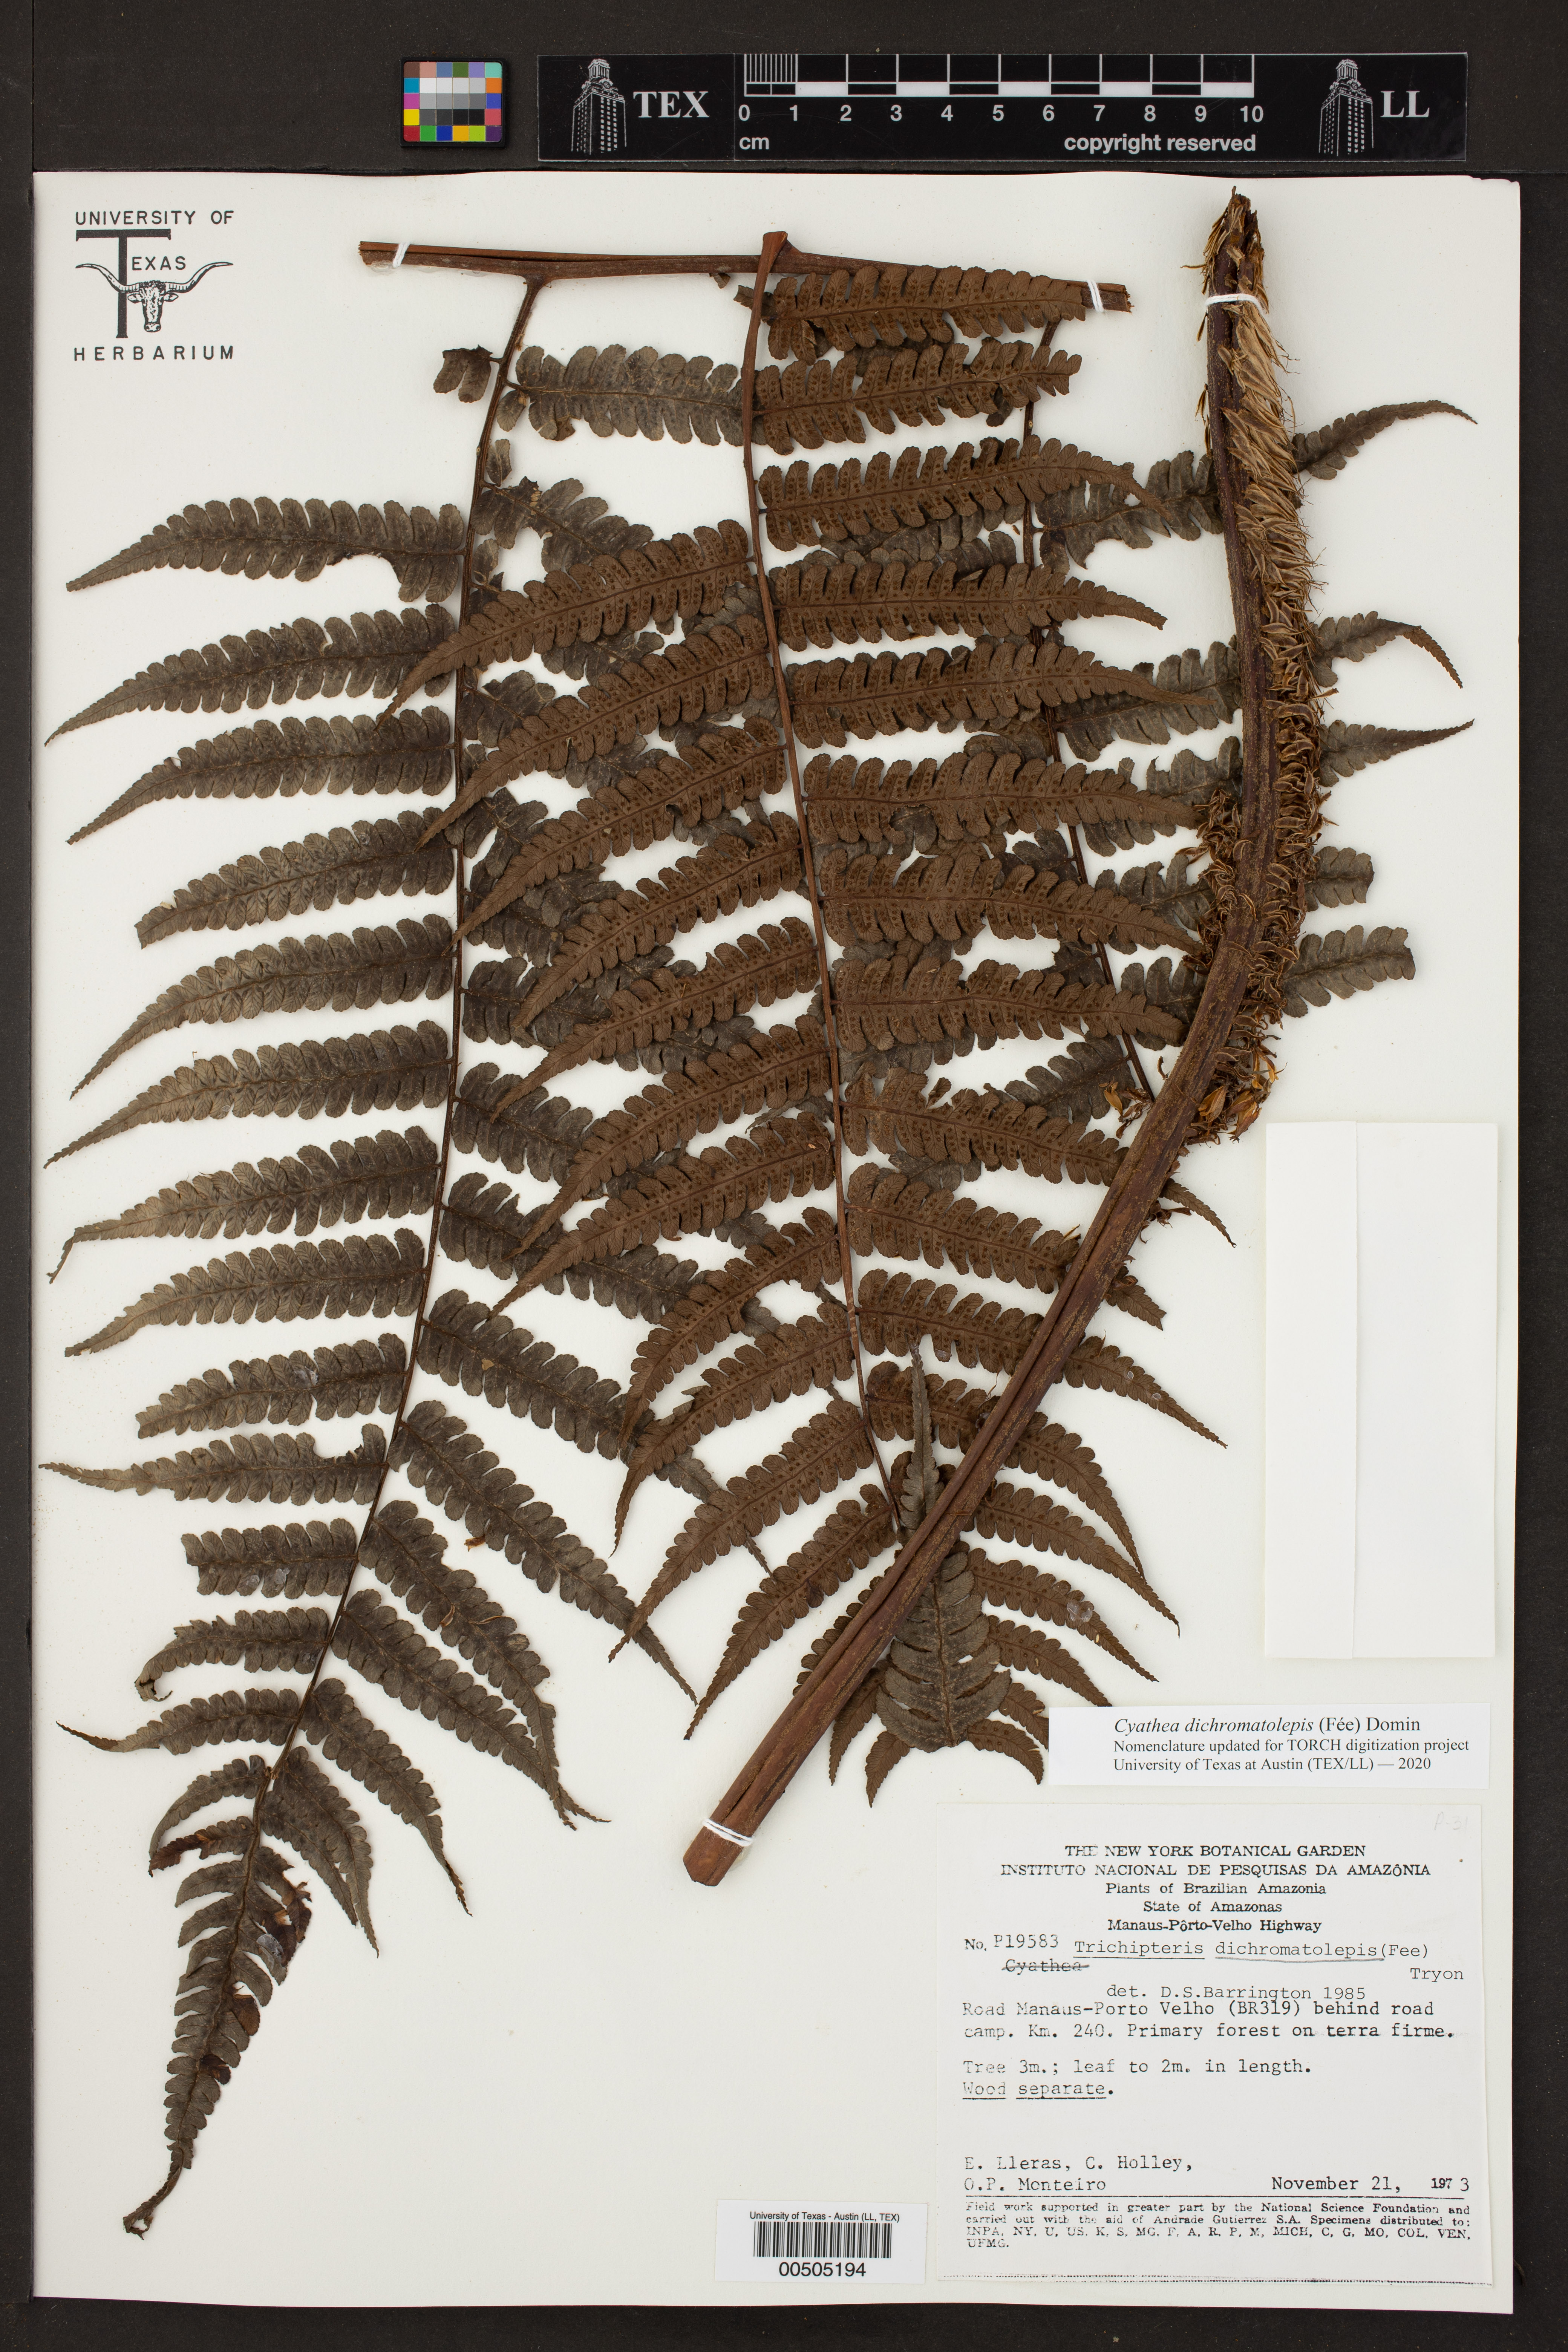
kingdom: Plantae
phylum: Tracheophyta
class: Polypodiopsida
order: Cyatheales
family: Cyatheaceae
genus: Cyathea
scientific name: Cyathea
